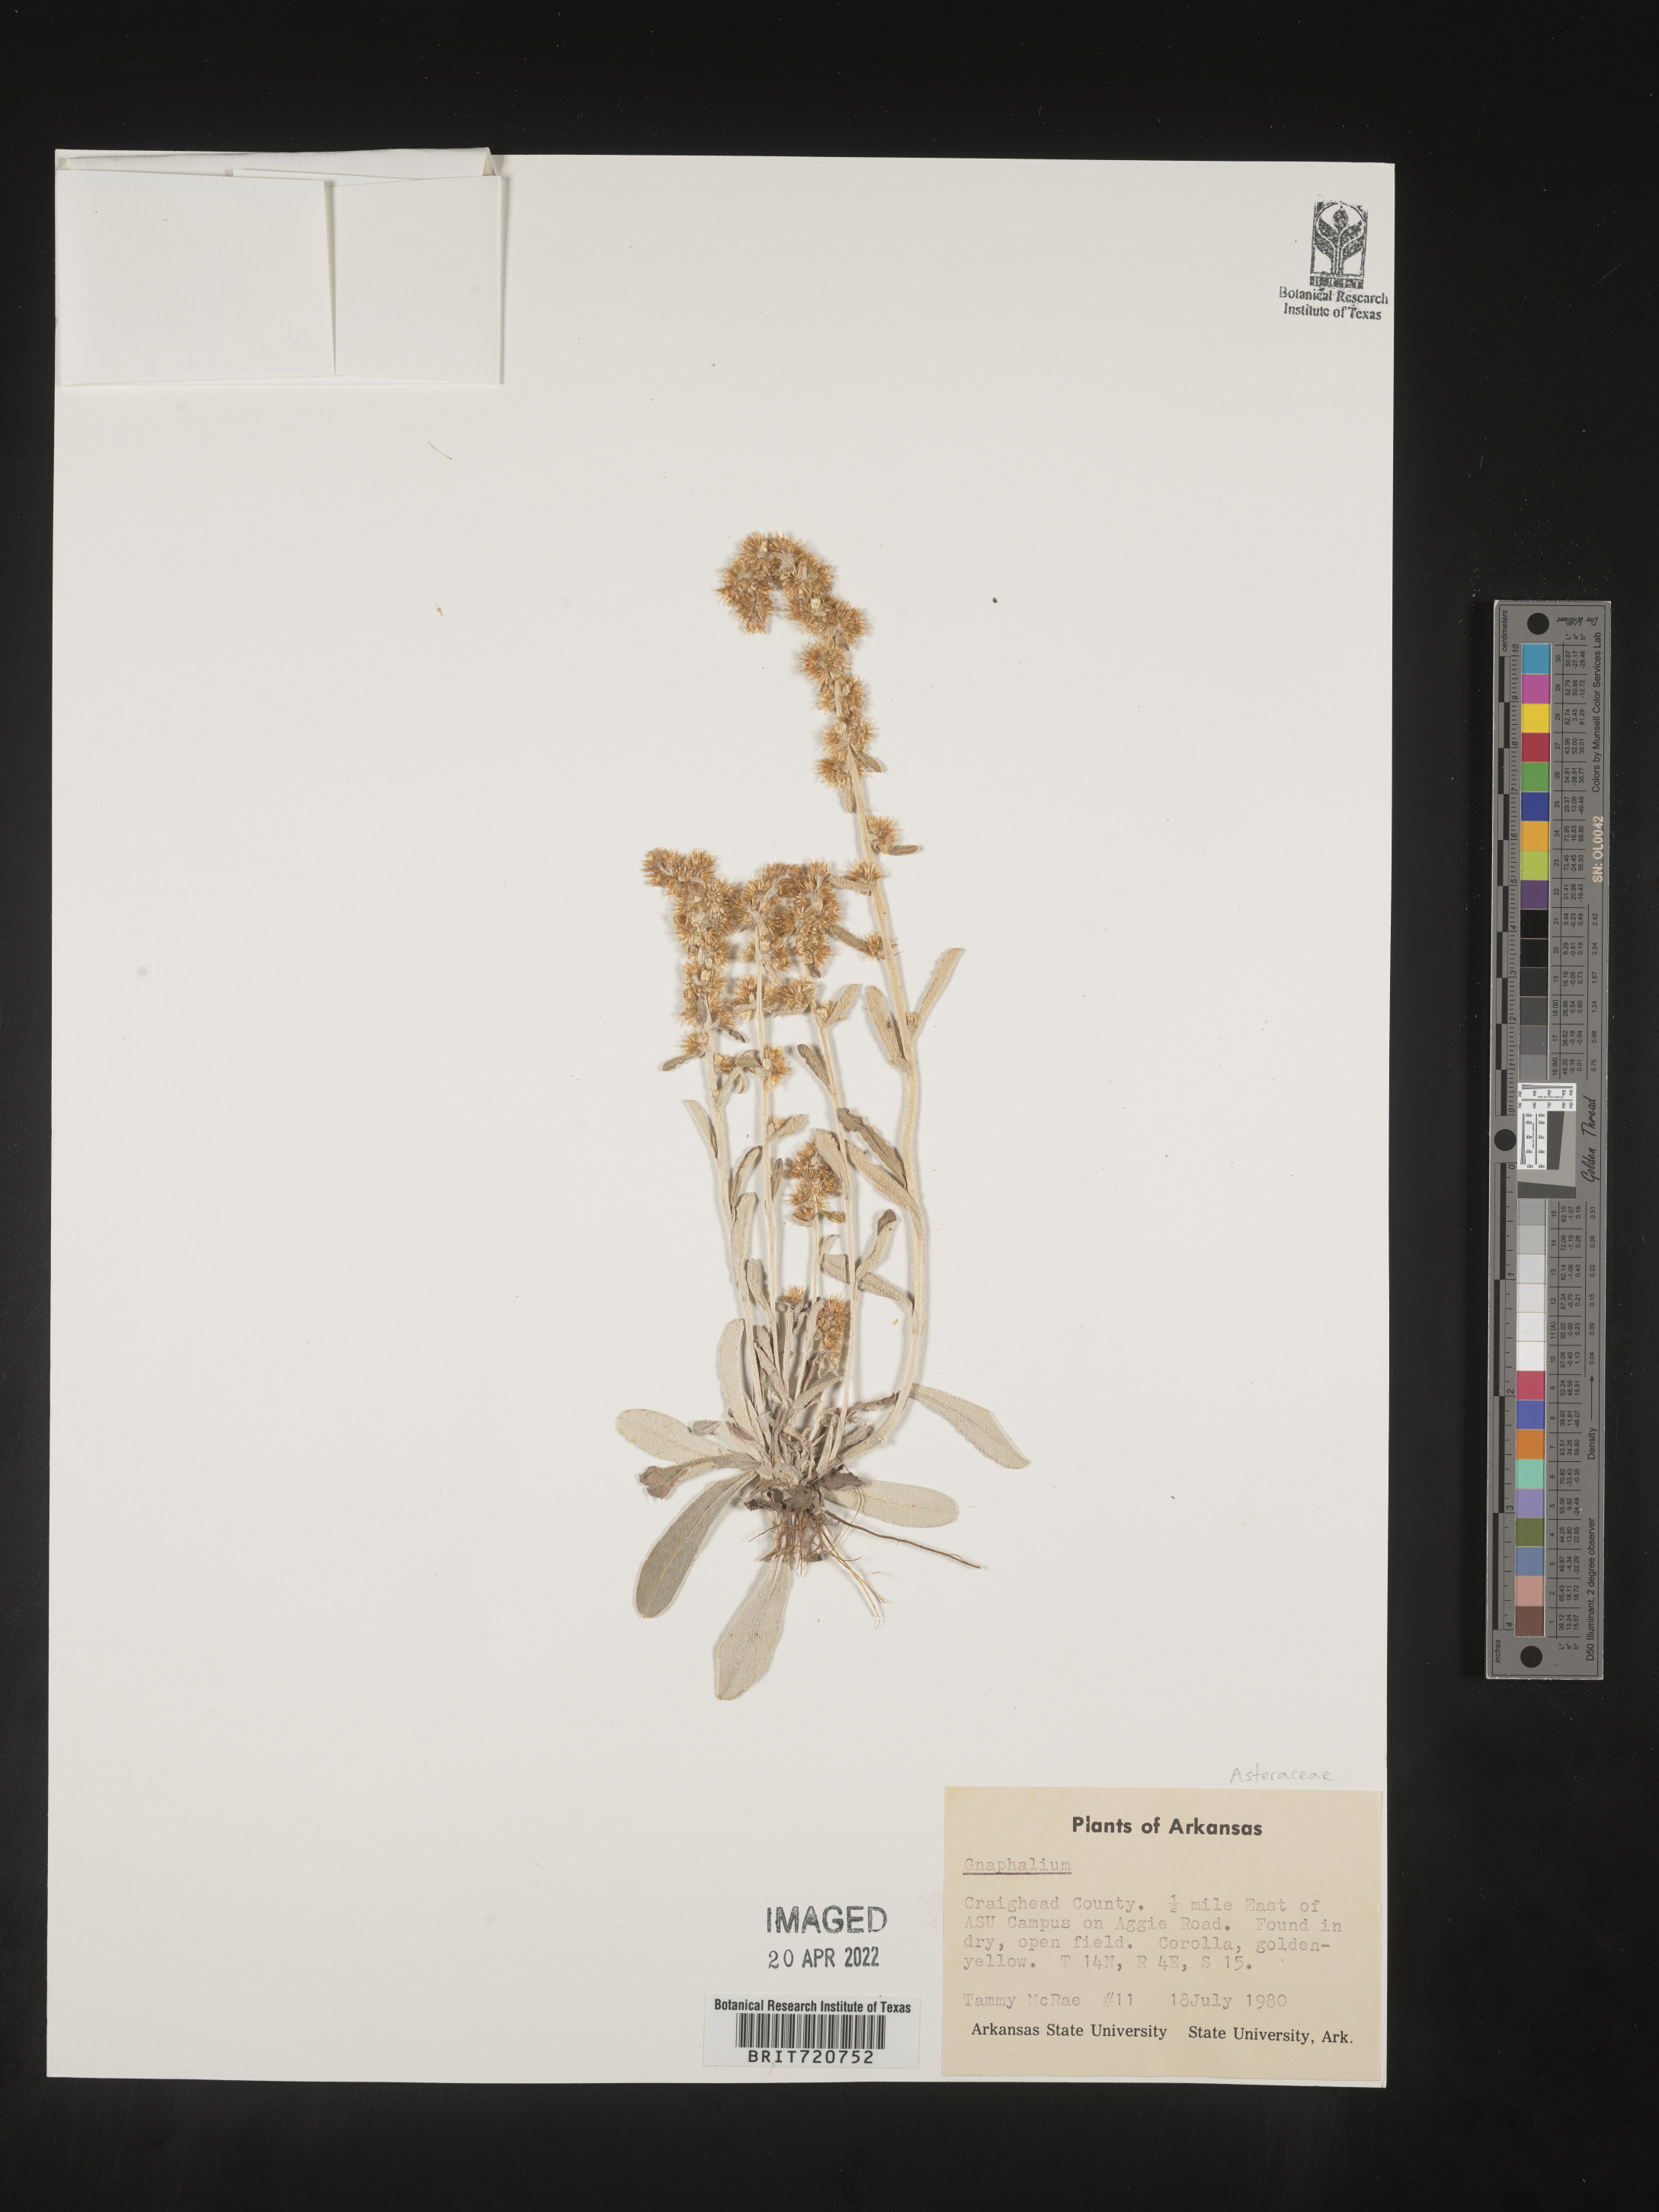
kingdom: Plantae
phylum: Tracheophyta
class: Magnoliopsida
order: Asterales
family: Asteraceae
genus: Gnaphalium
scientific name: Gnaphalium
